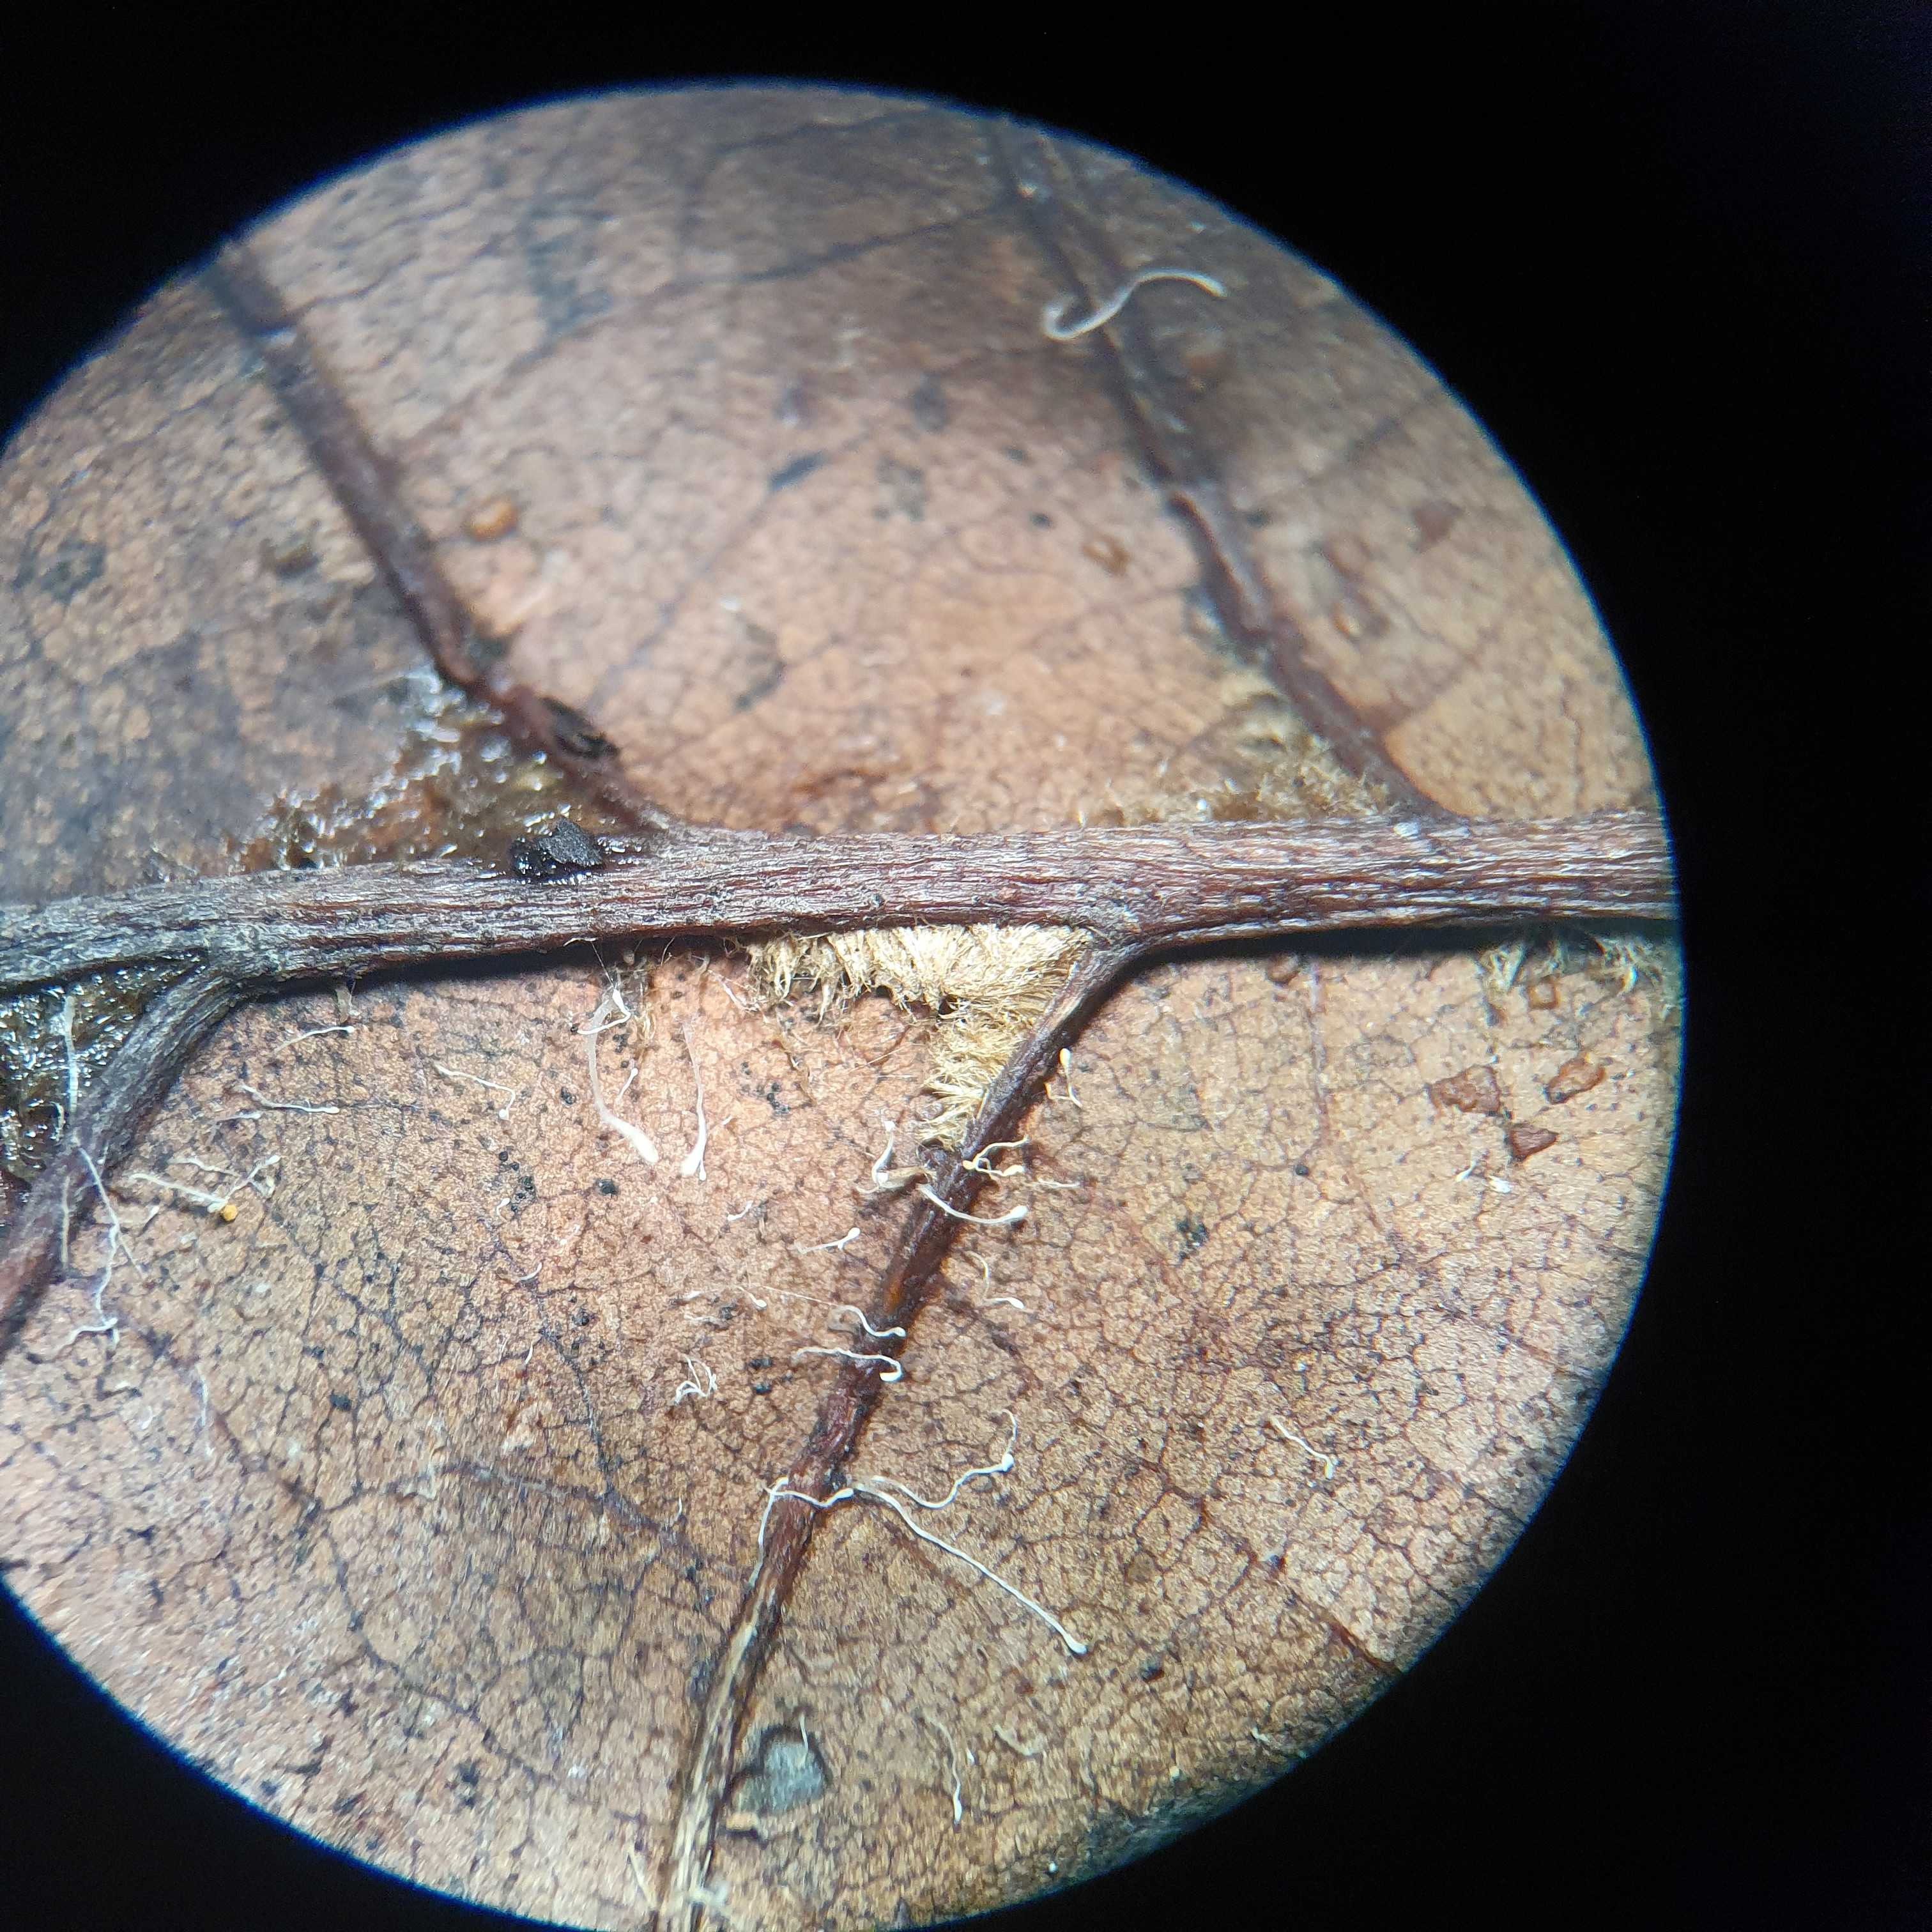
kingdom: Fungi
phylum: Basidiomycota
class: Agaricomycetes
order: Agaricales
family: Typhulaceae
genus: Typhula
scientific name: Typhula setipes
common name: liden trådkølle
